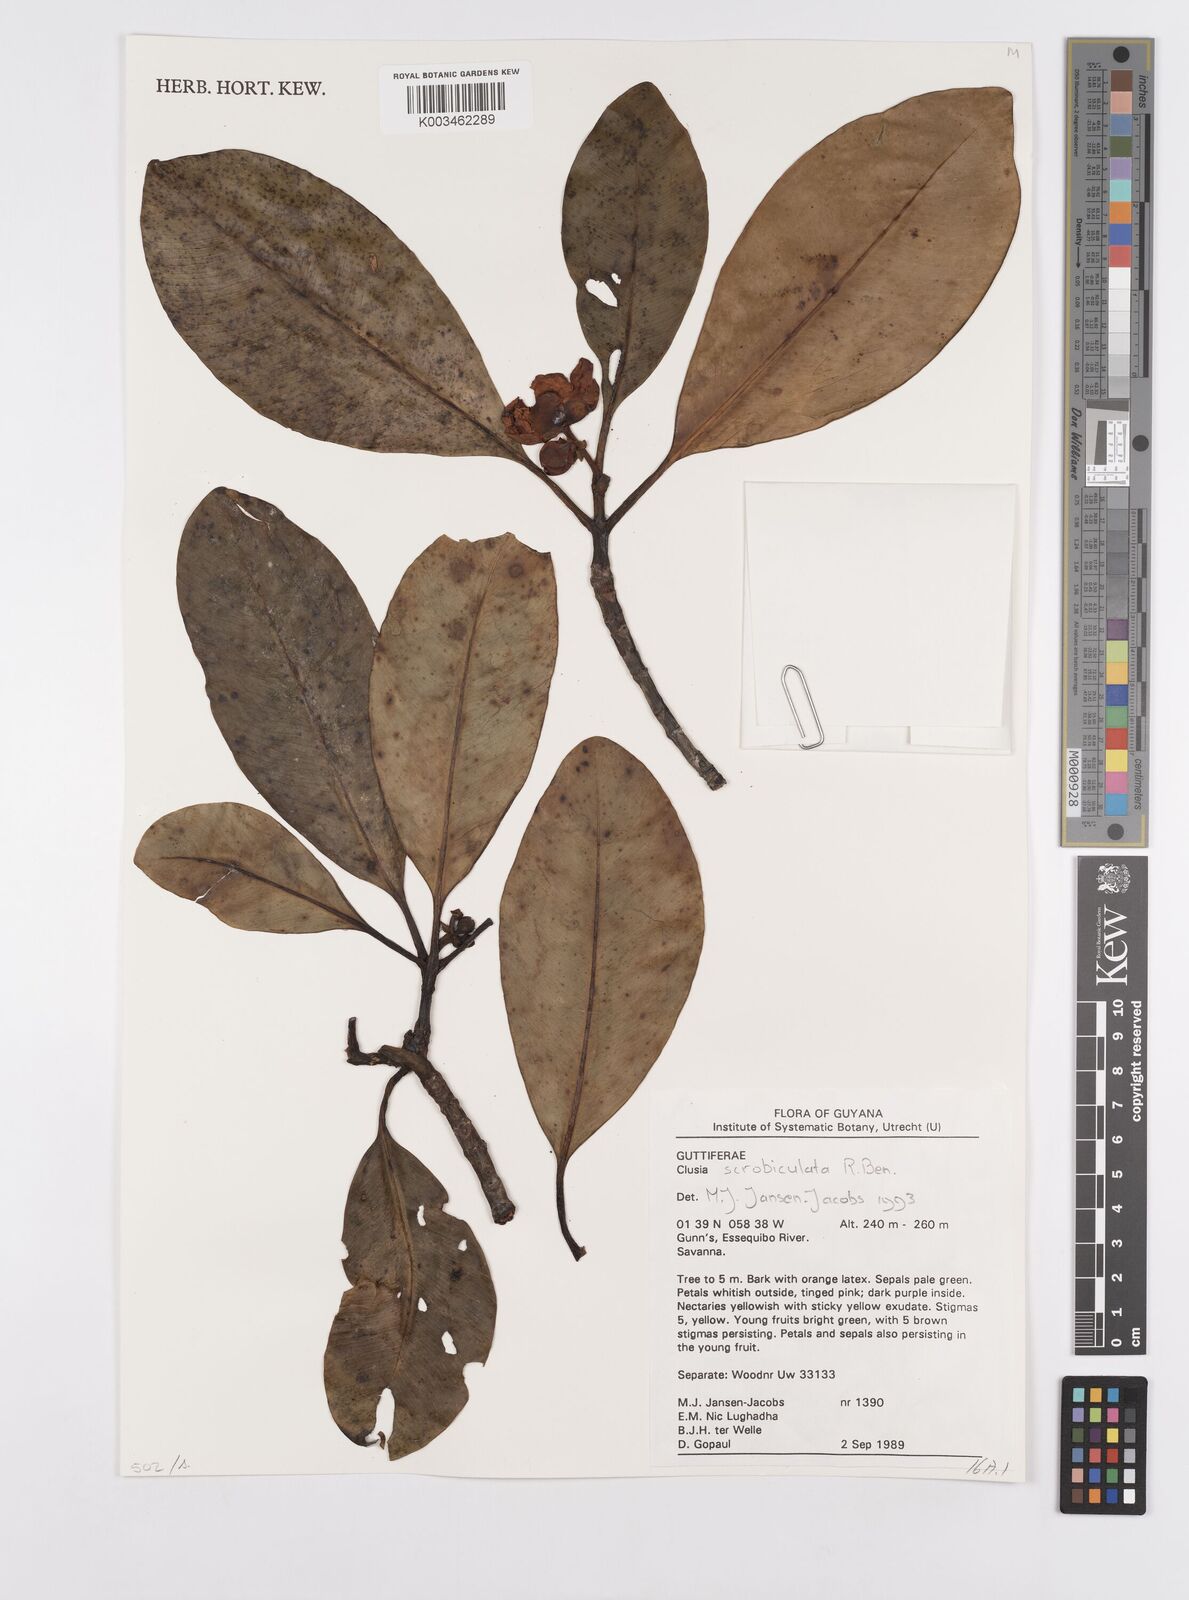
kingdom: Plantae
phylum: Tracheophyta
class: Magnoliopsida
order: Malpighiales
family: Clusiaceae
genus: Clusia
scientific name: Clusia scrobiculata
